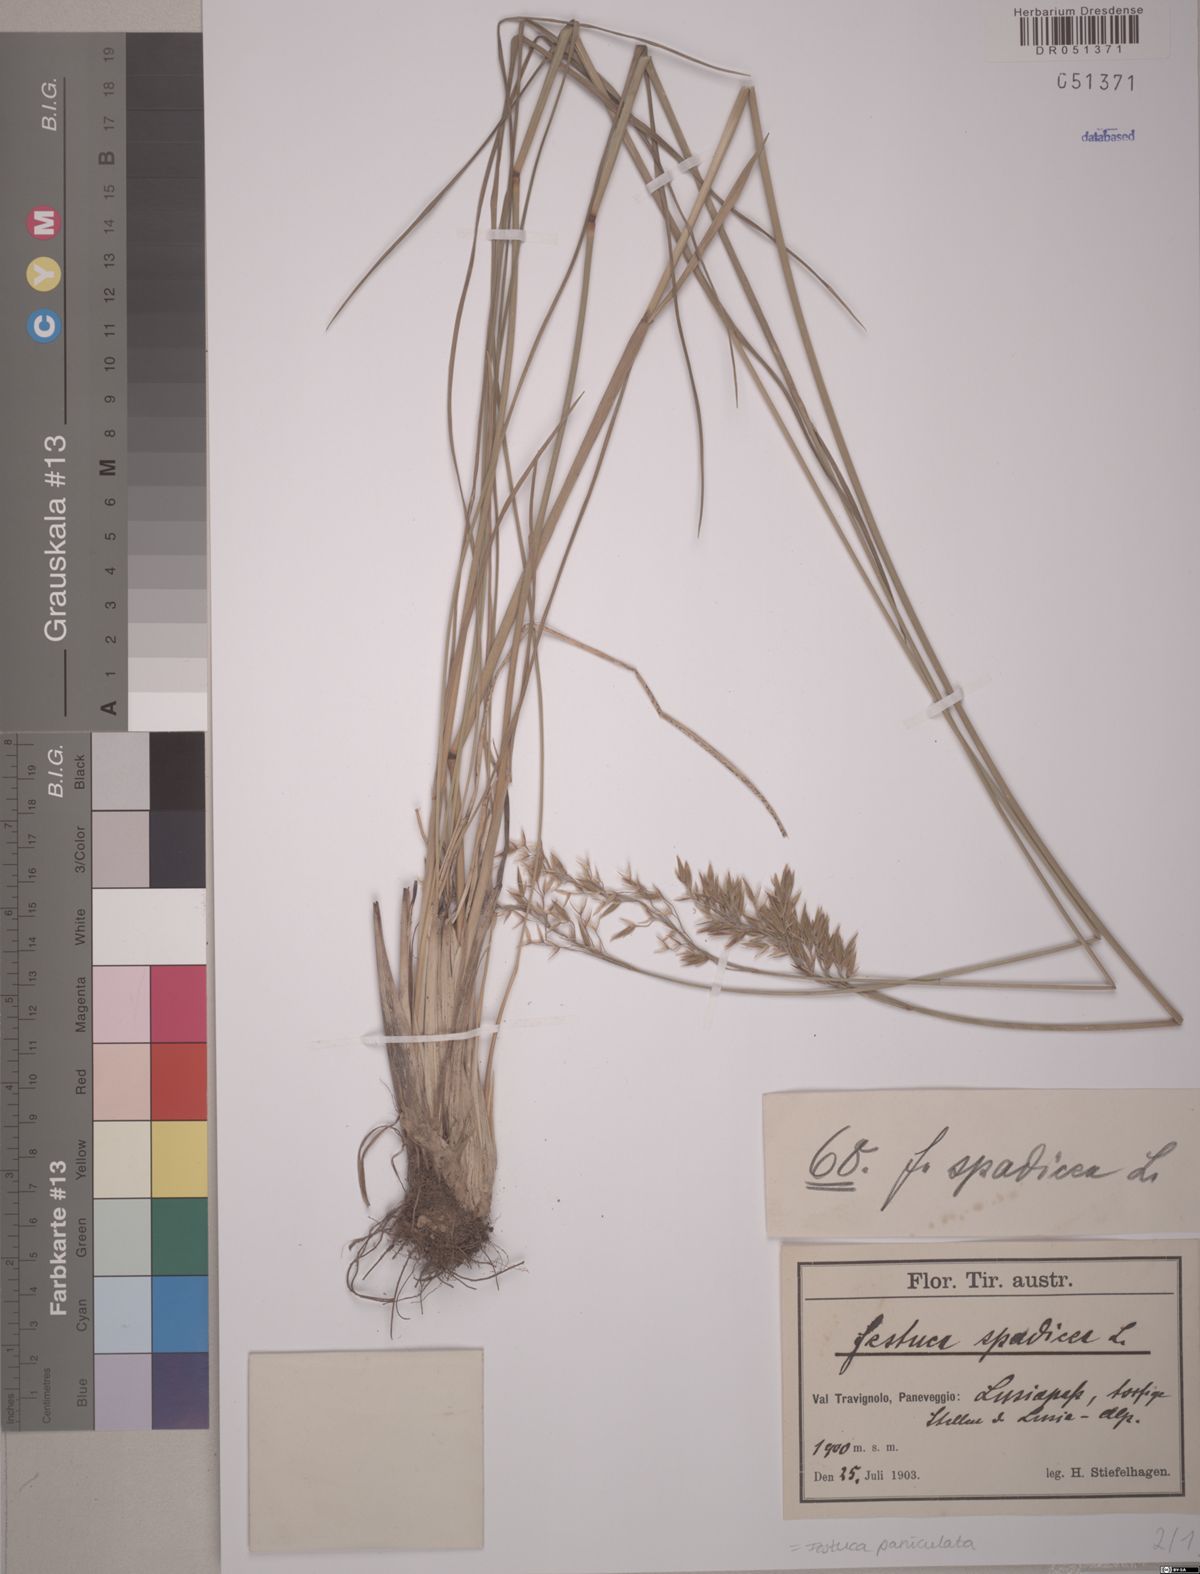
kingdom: Plantae
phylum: Tracheophyta
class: Liliopsida
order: Poales
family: Poaceae
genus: Patzkea
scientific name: Patzkea paniculata
